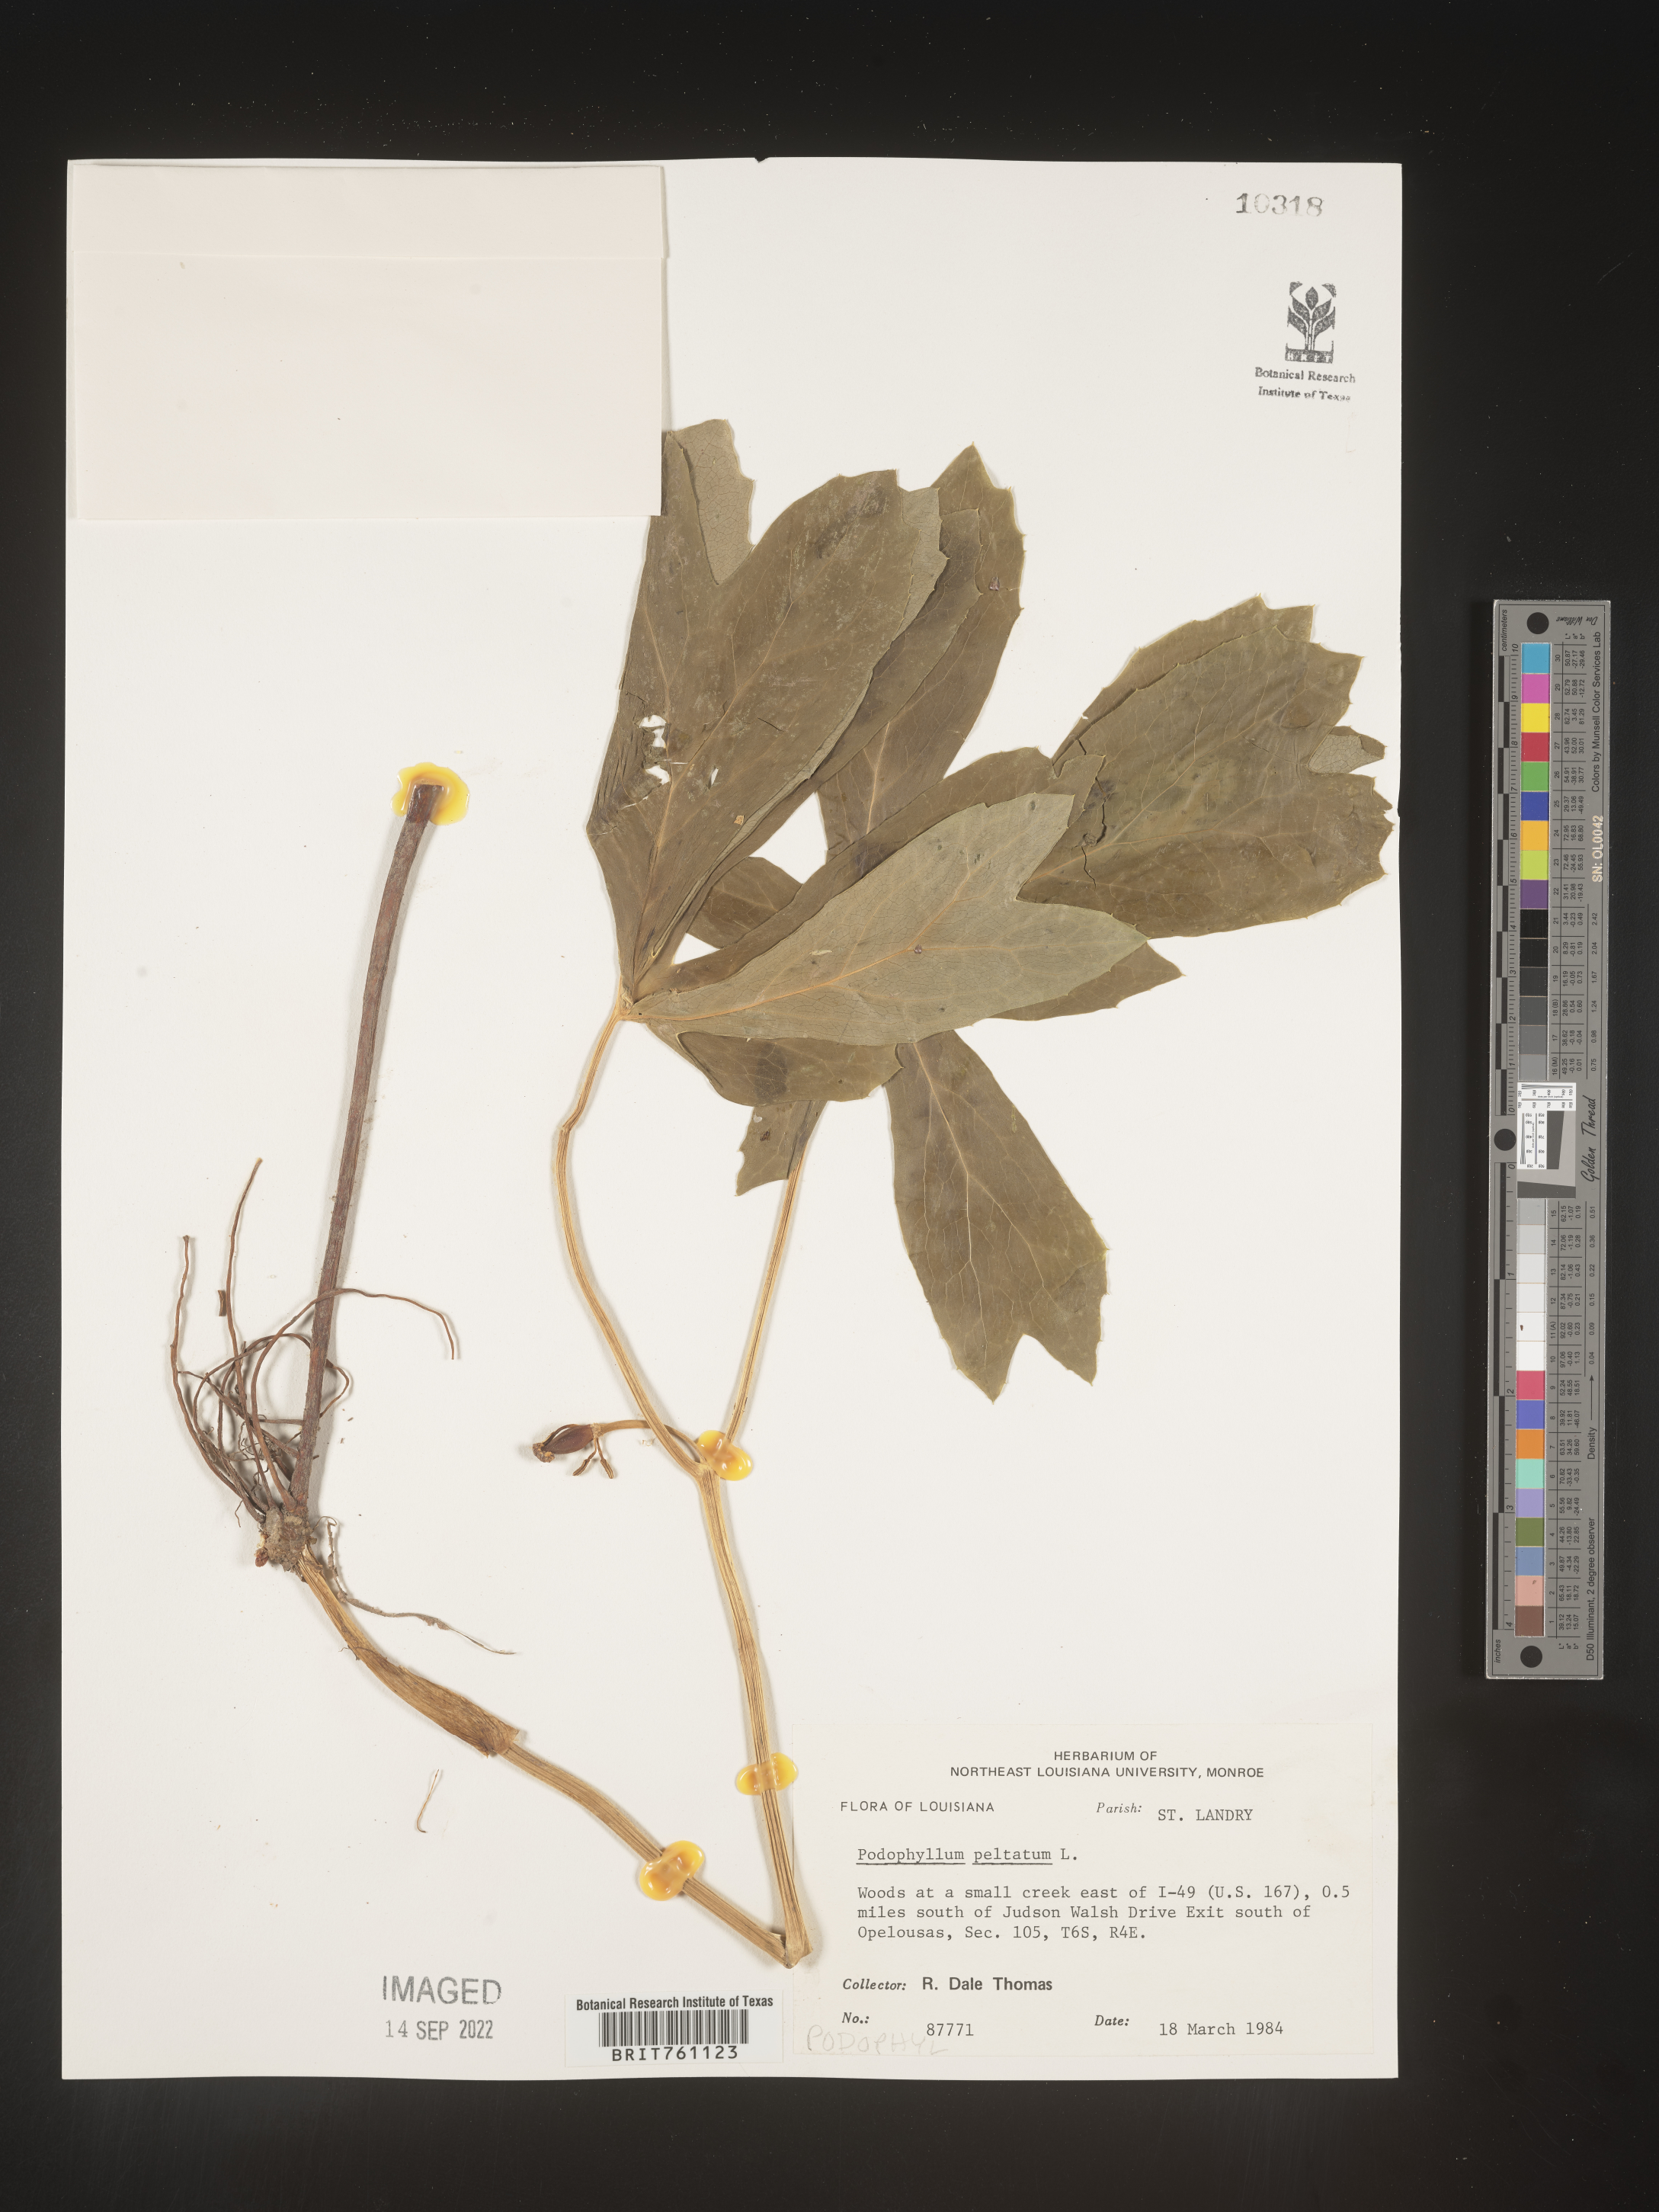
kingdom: Plantae
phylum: Tracheophyta
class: Magnoliopsida
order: Ranunculales
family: Berberidaceae
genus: Podophyllum
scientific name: Podophyllum peltatum
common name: Wild mandrake
